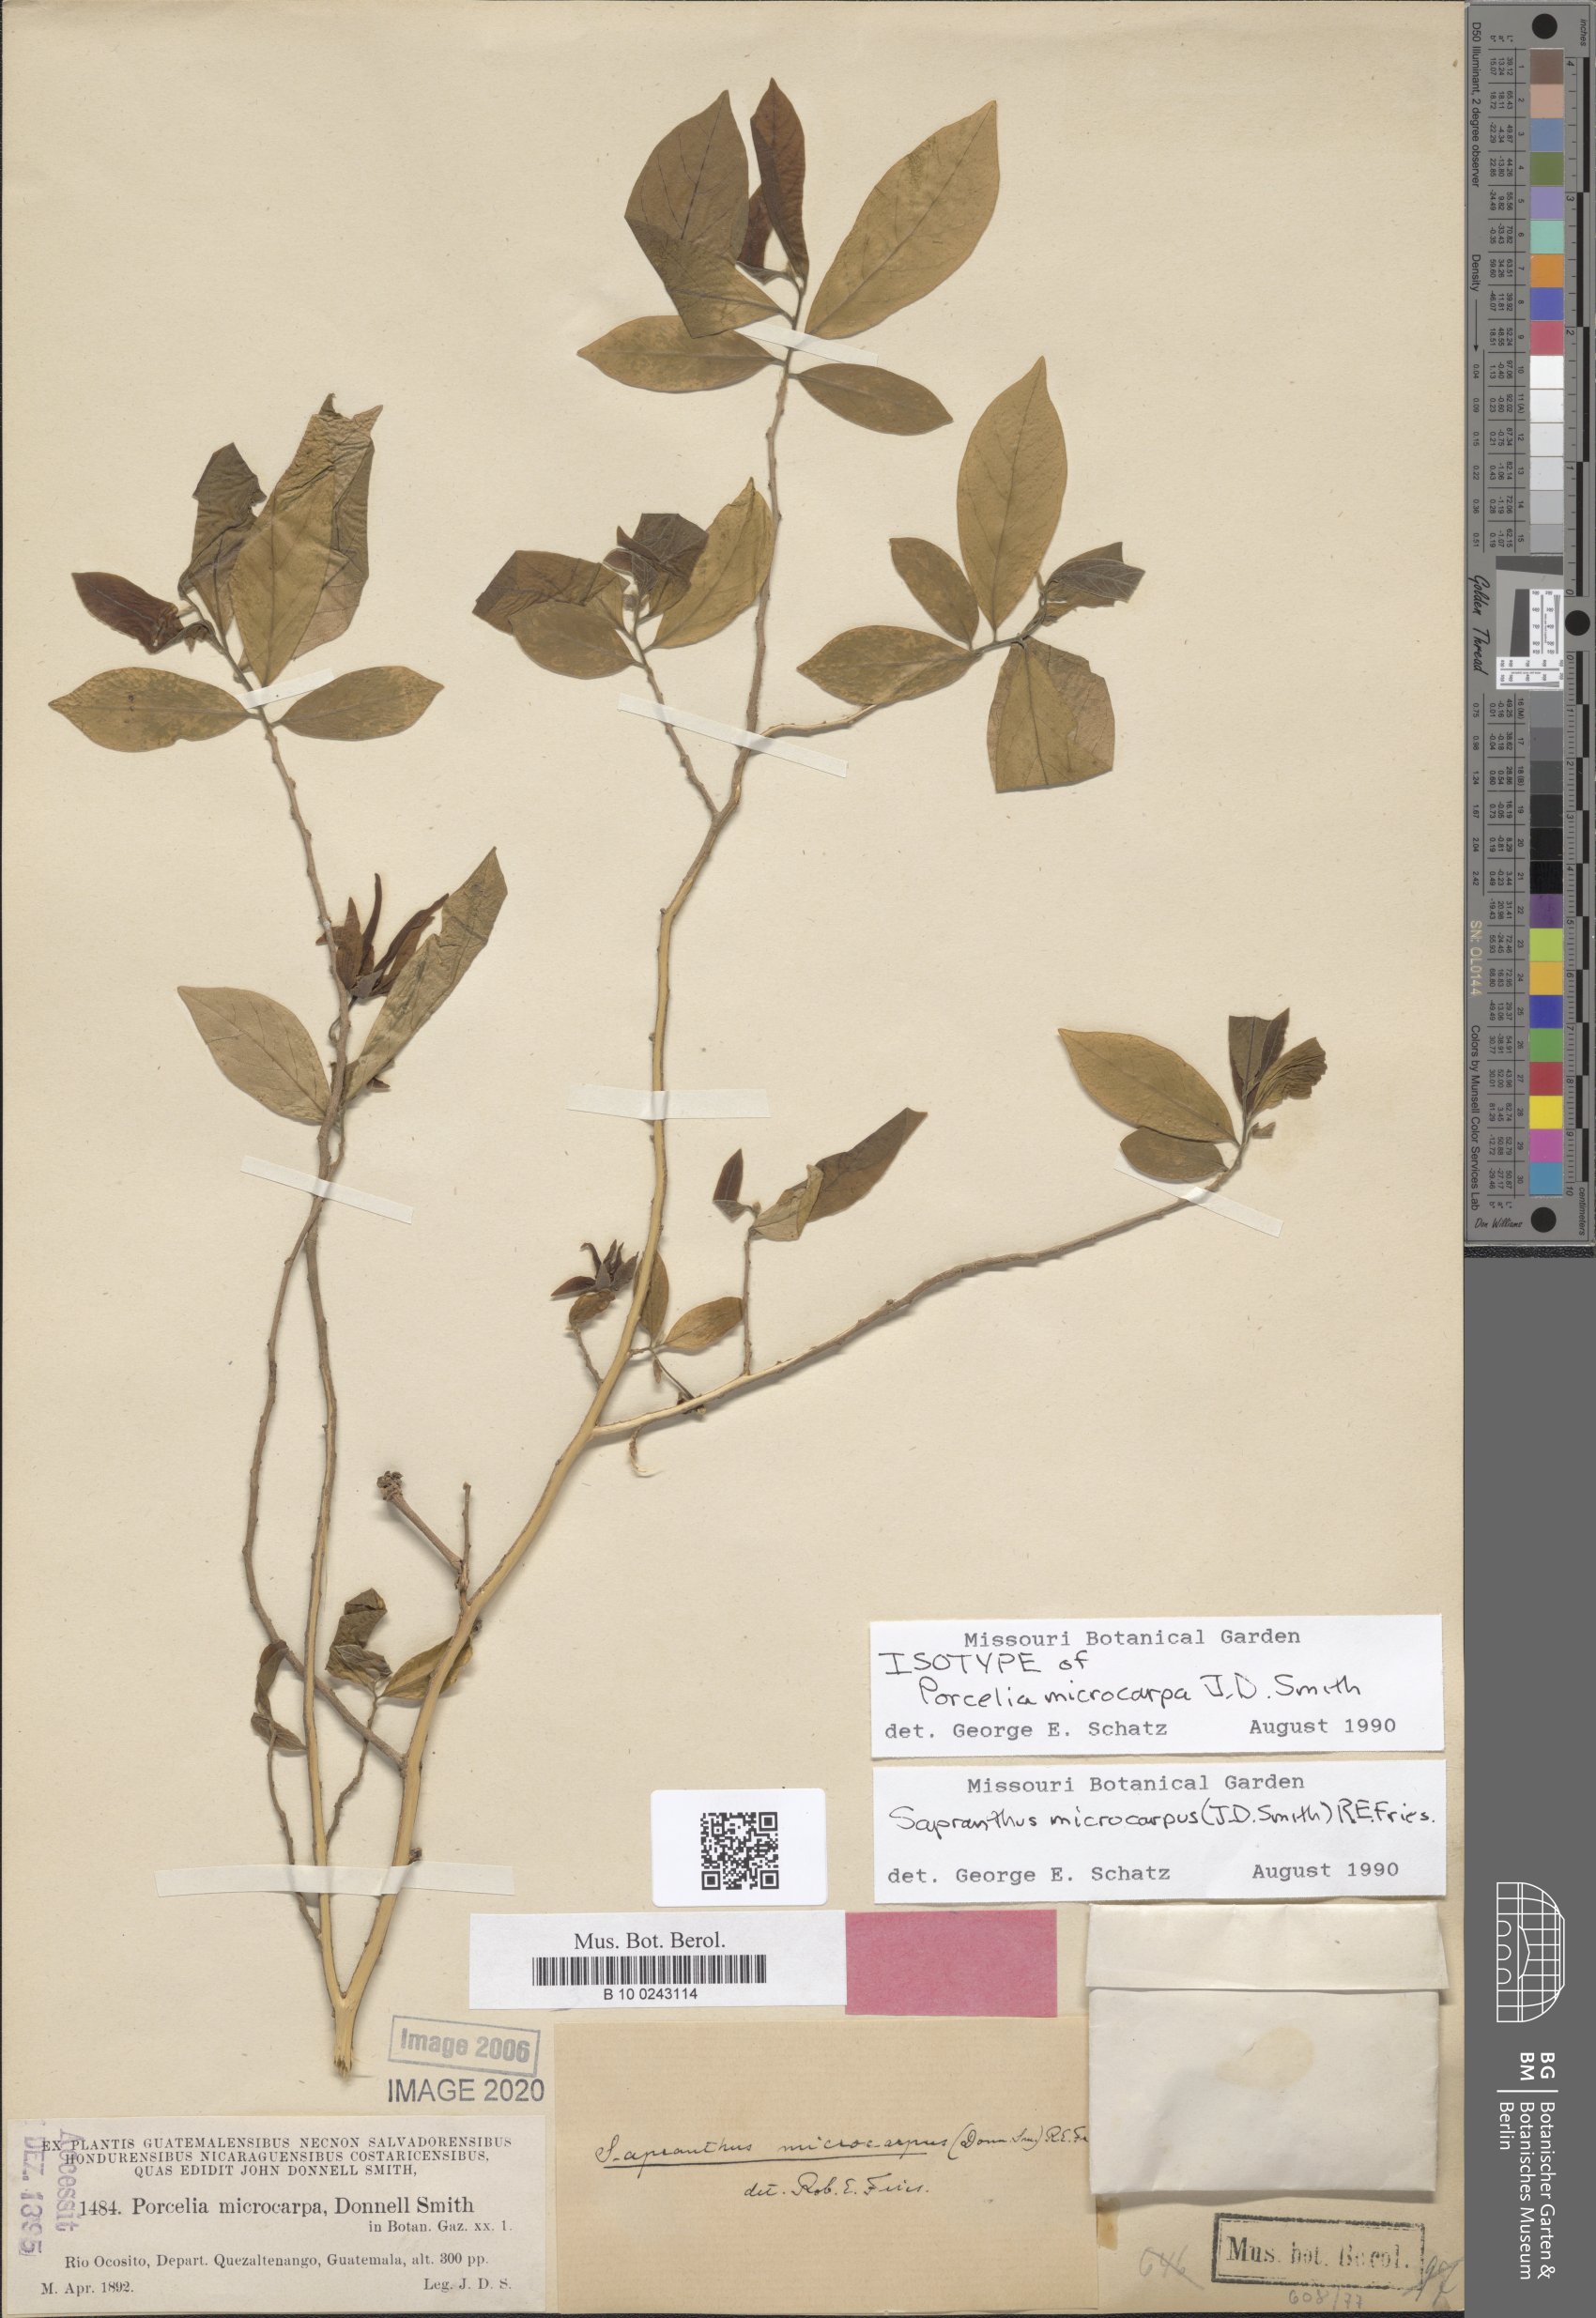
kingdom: Plantae
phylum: Tracheophyta
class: Magnoliopsida
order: Magnoliales
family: Annonaceae
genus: Sapranthus
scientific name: Sapranthus microcarpus
